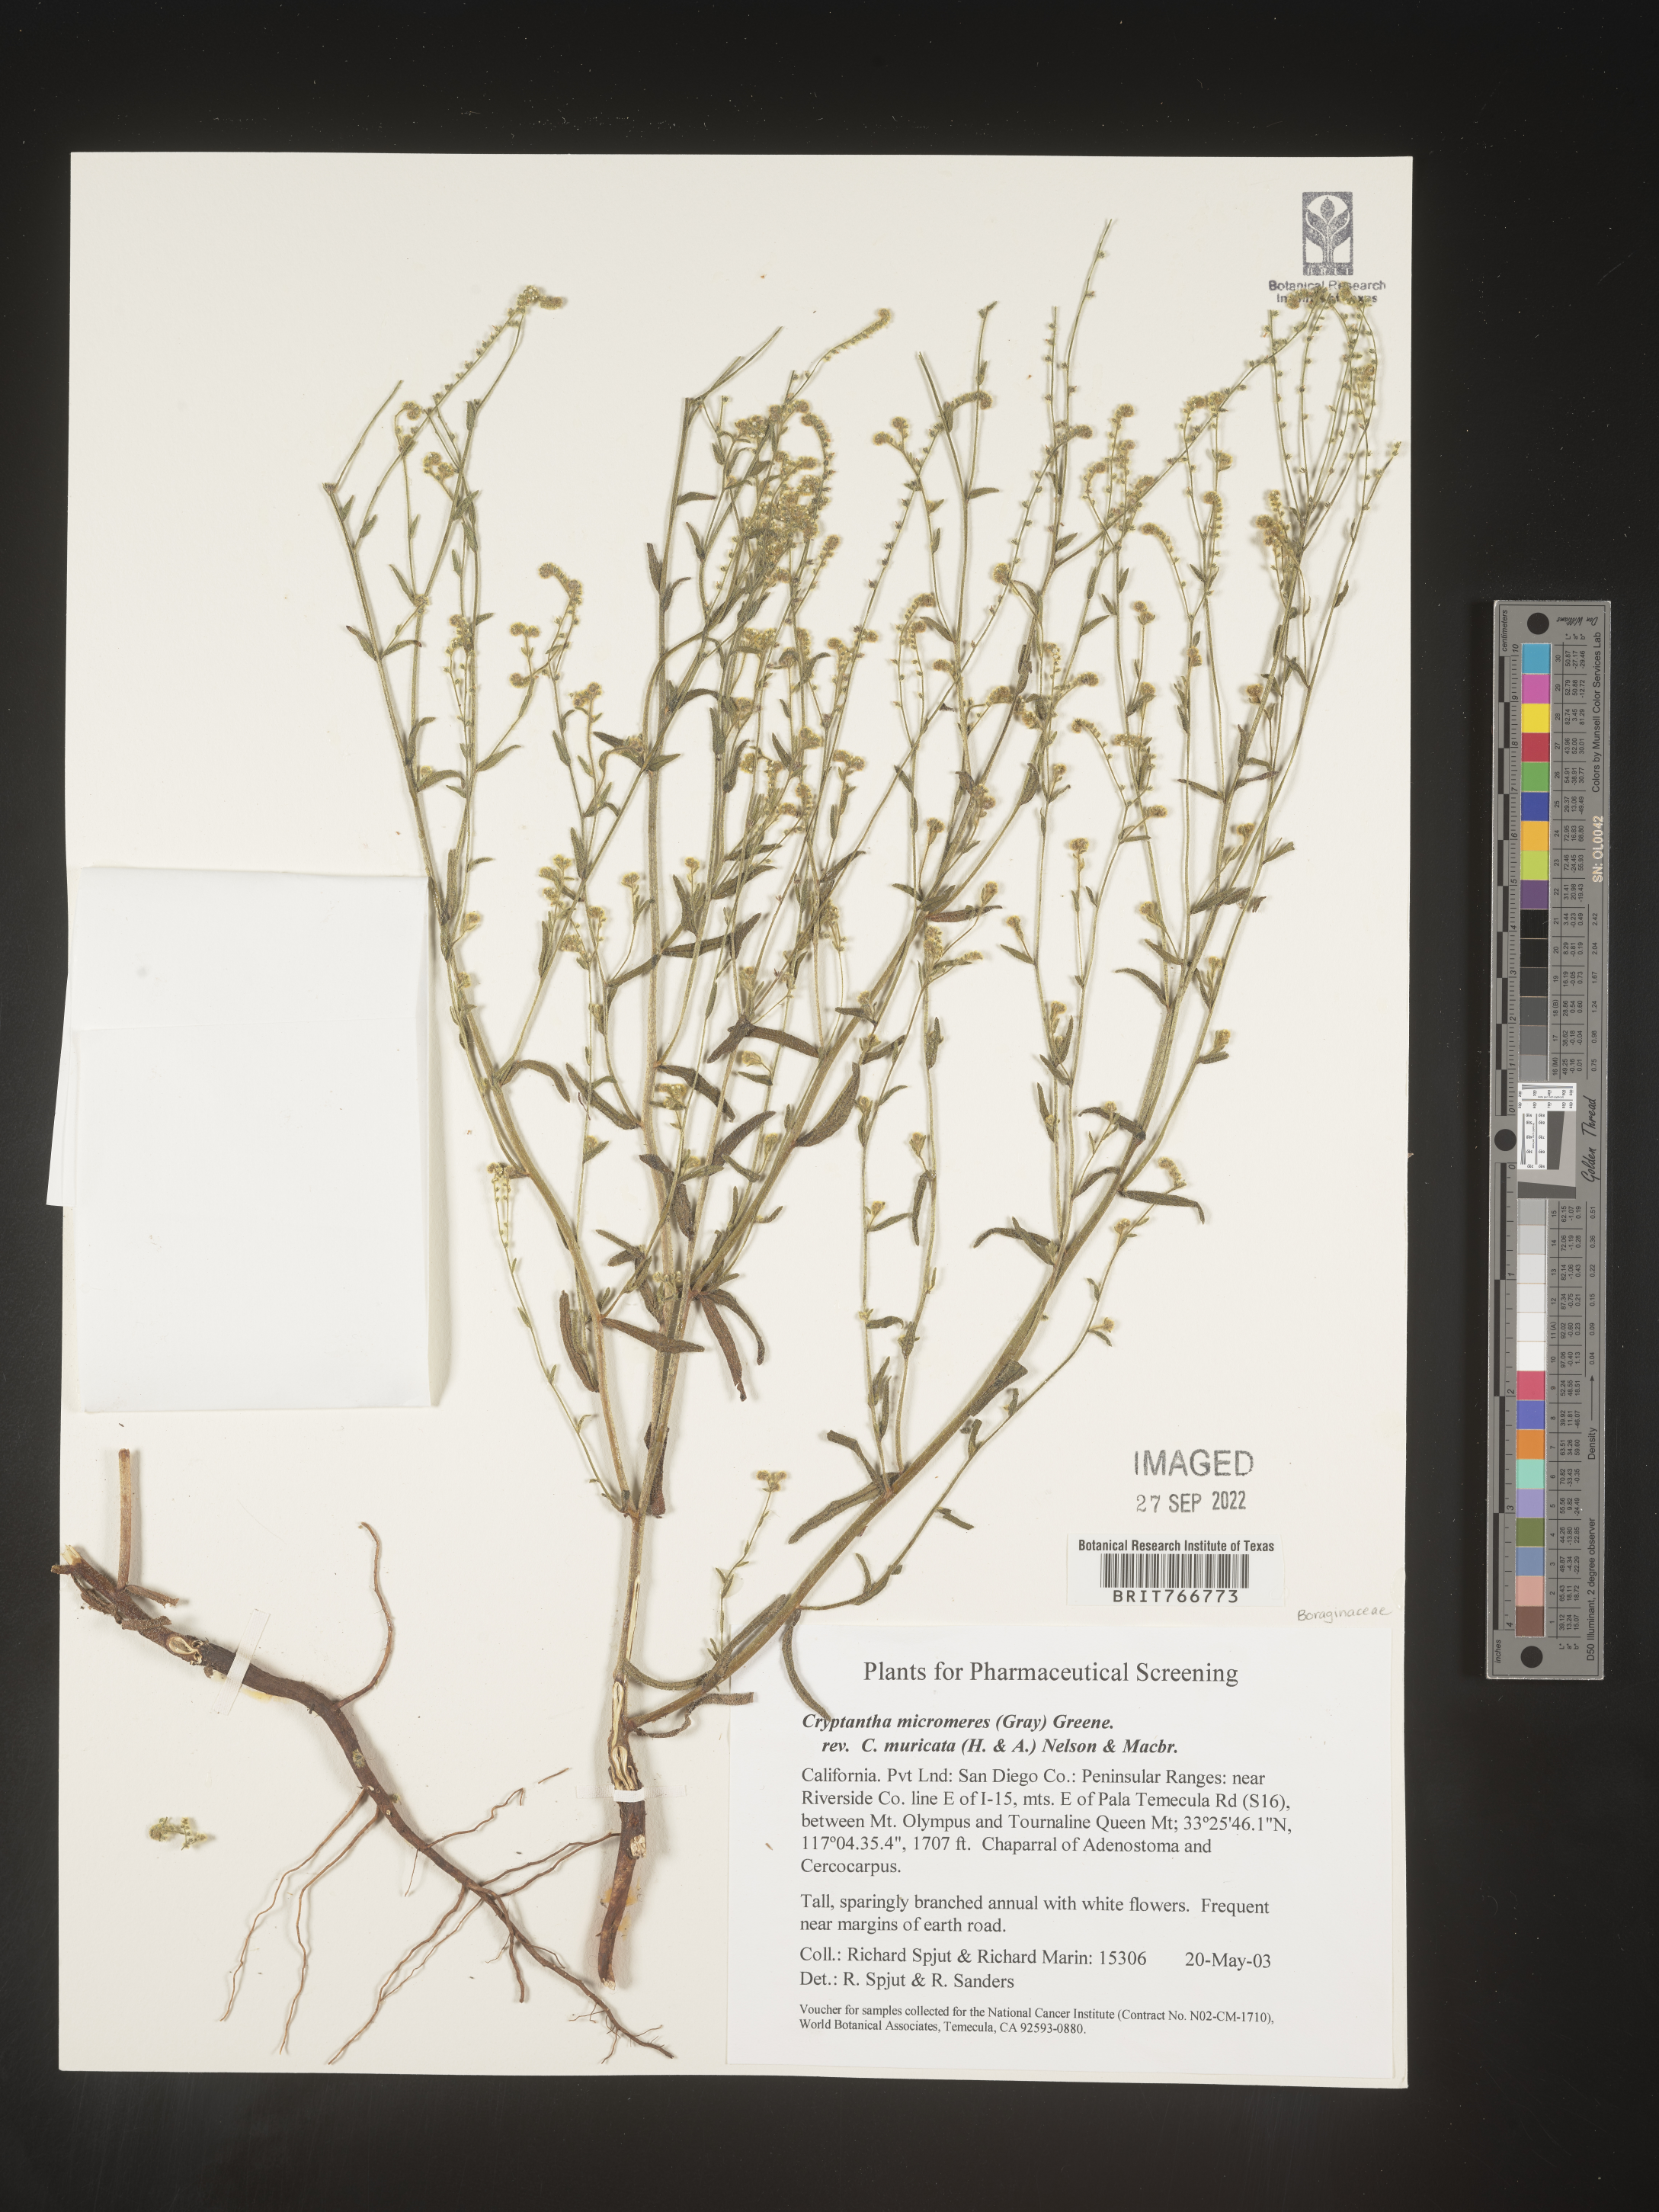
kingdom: Plantae
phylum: Tracheophyta
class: Magnoliopsida
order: Boraginales
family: Boraginaceae
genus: Cryptantha
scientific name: Cryptantha
